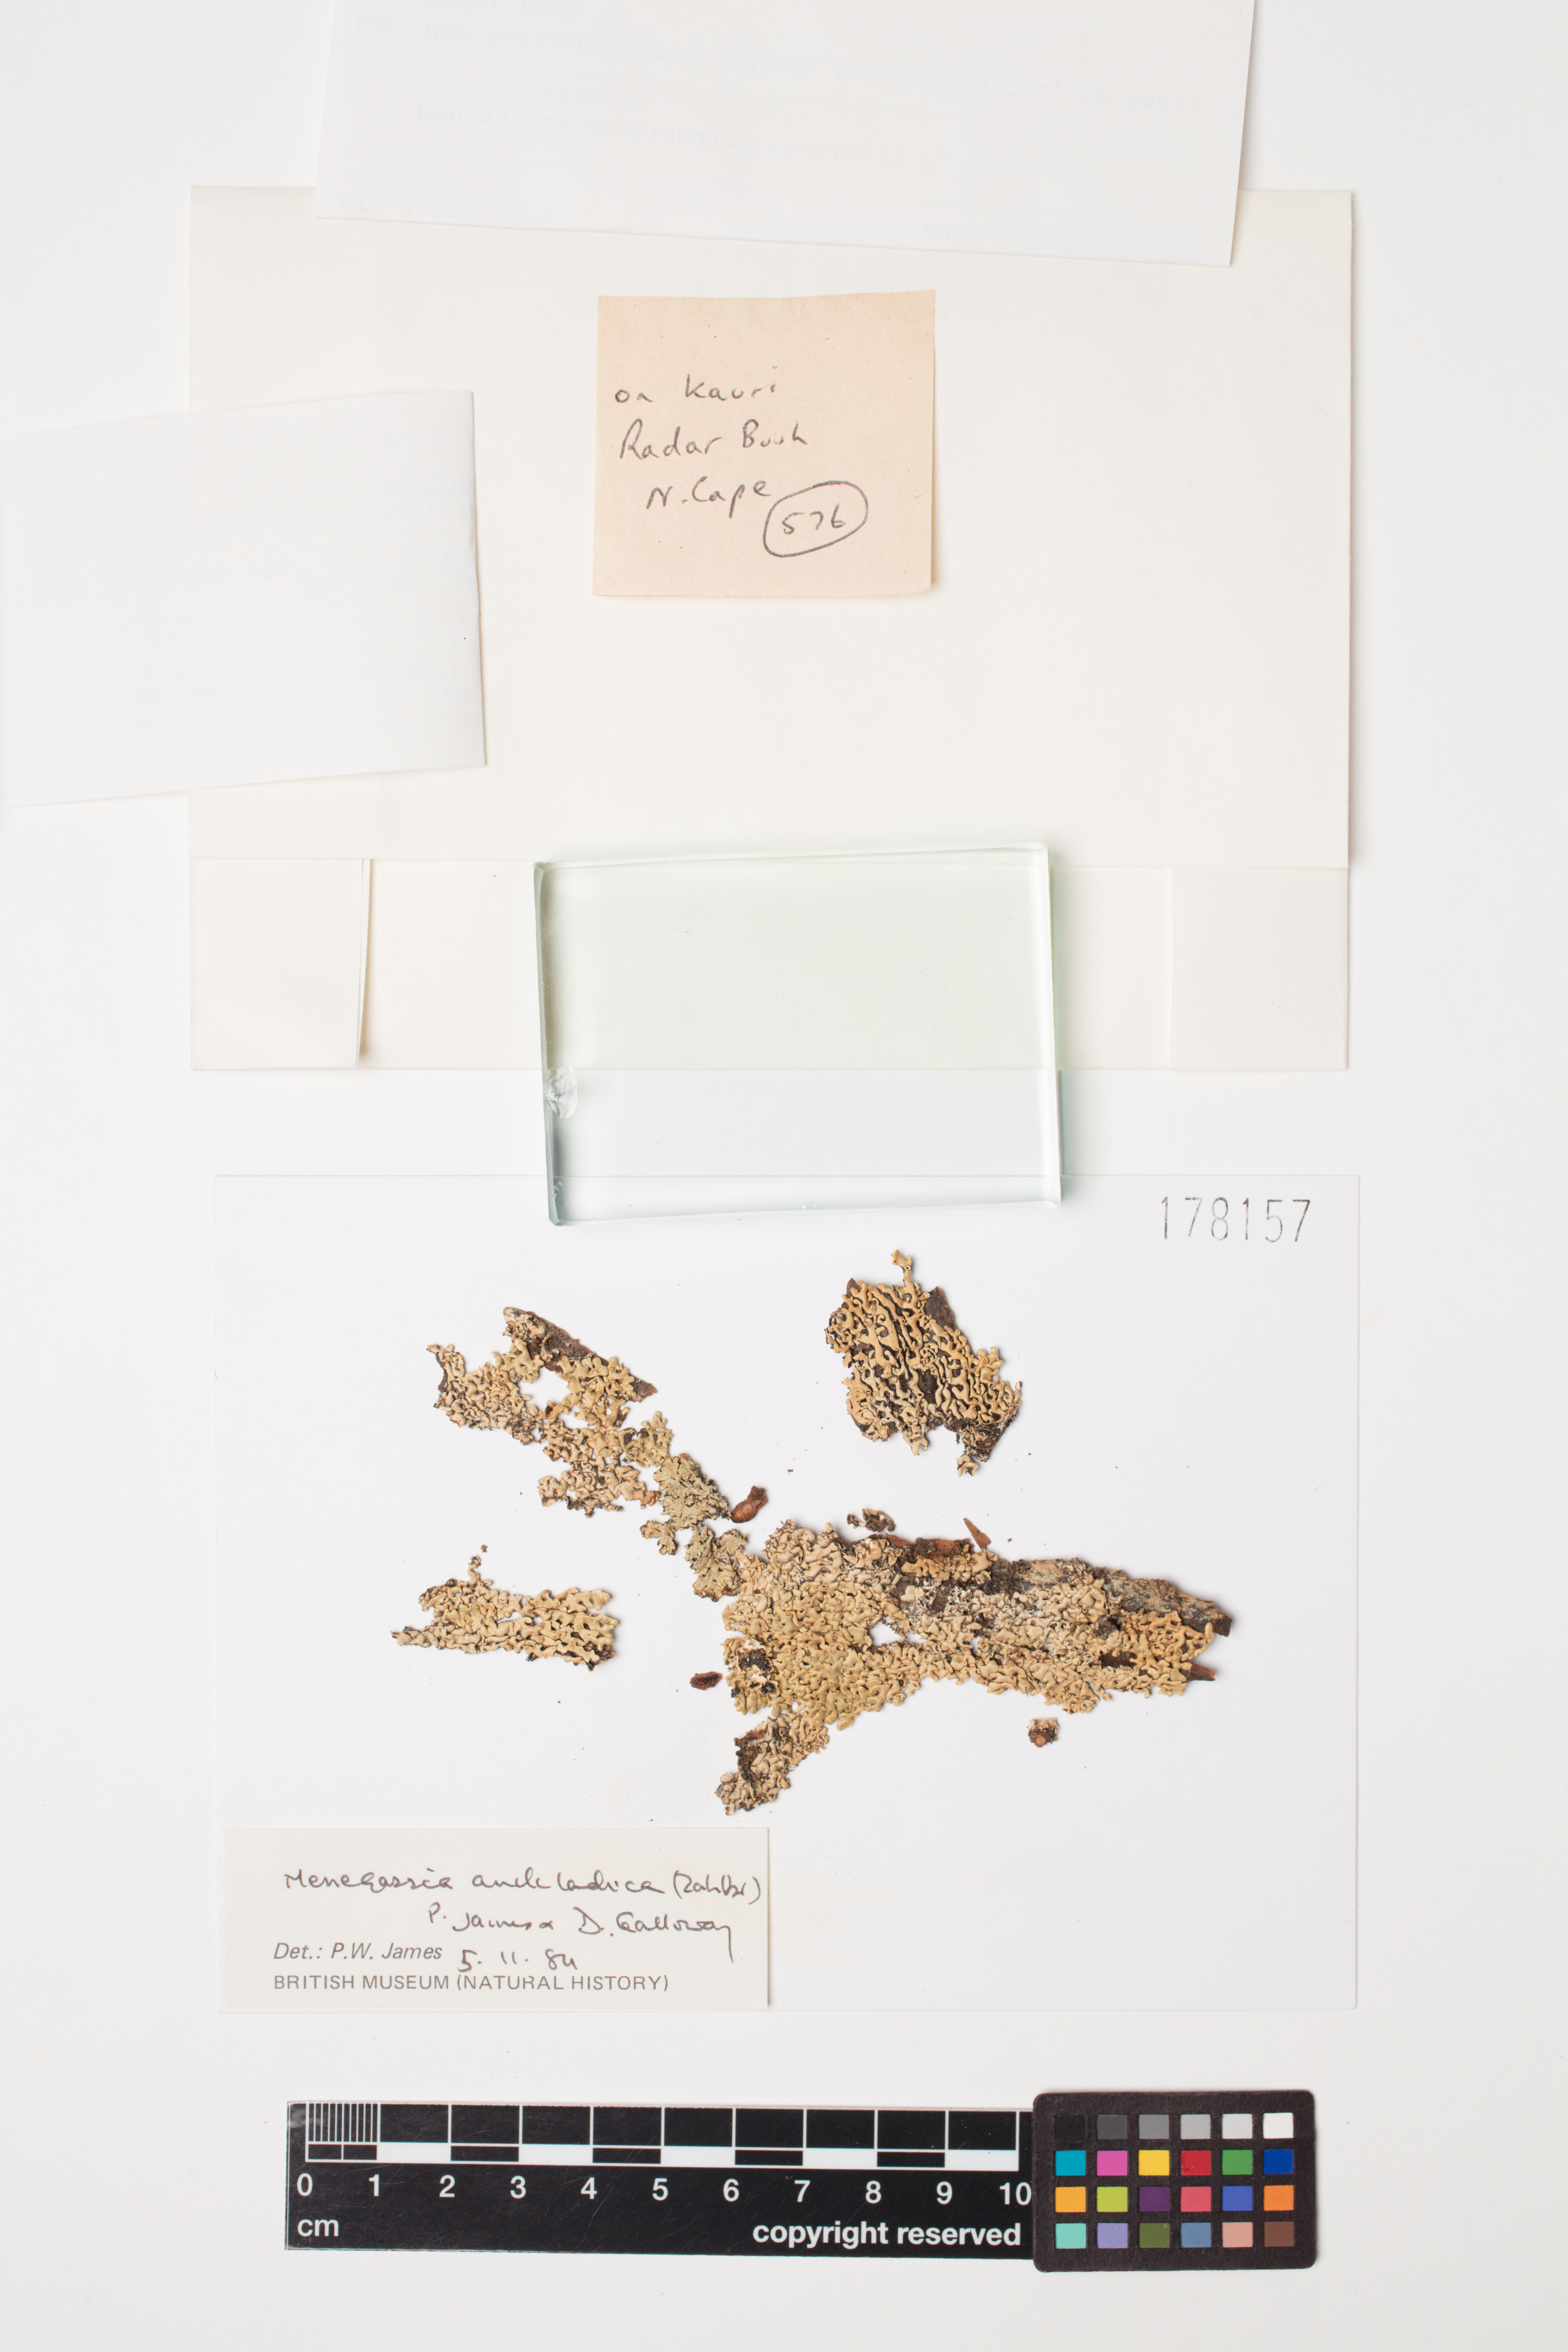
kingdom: Fungi
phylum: Ascomycota
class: Lecanoromycetes
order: Lecanorales
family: Parmeliaceae
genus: Menegazzia
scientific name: Menegazzia aucklandica
